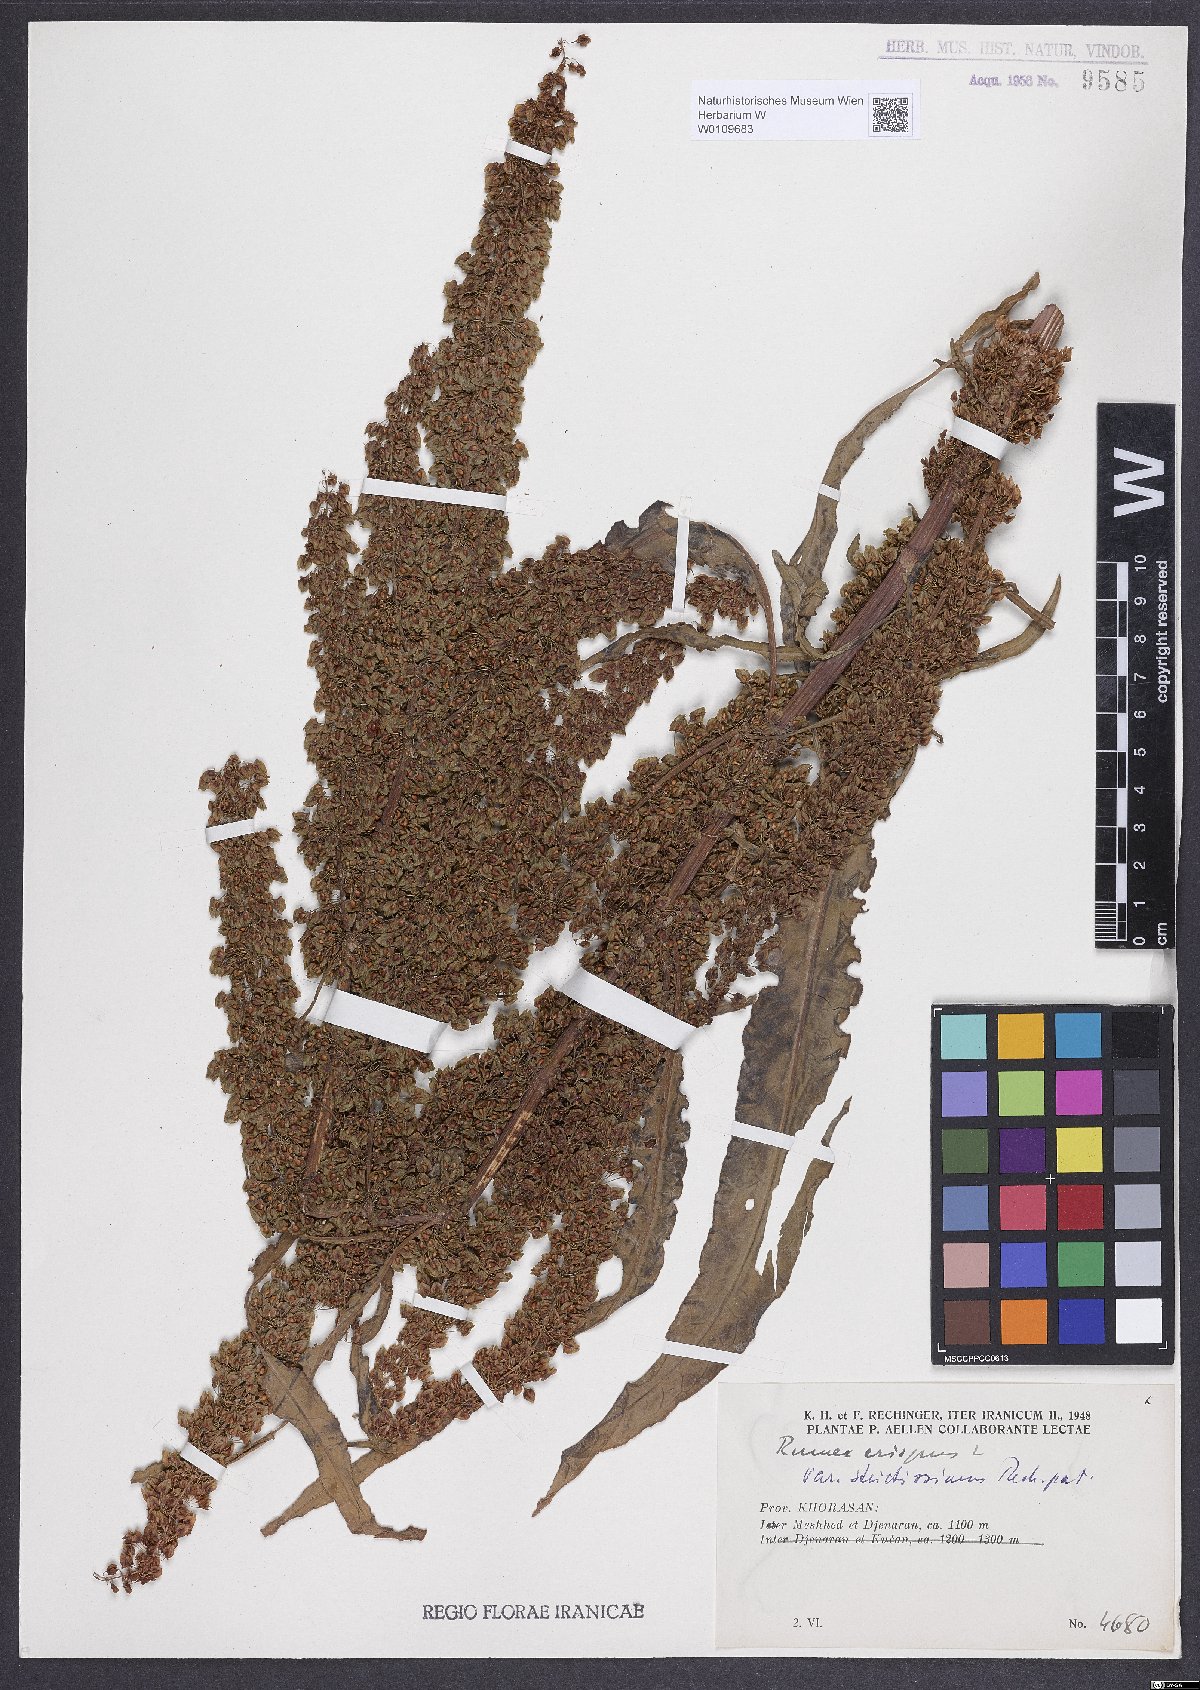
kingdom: Plantae
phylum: Tracheophyta
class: Magnoliopsida
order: Caryophyllales
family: Polygonaceae
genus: Rumex
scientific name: Rumex crispus
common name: Curled dock
